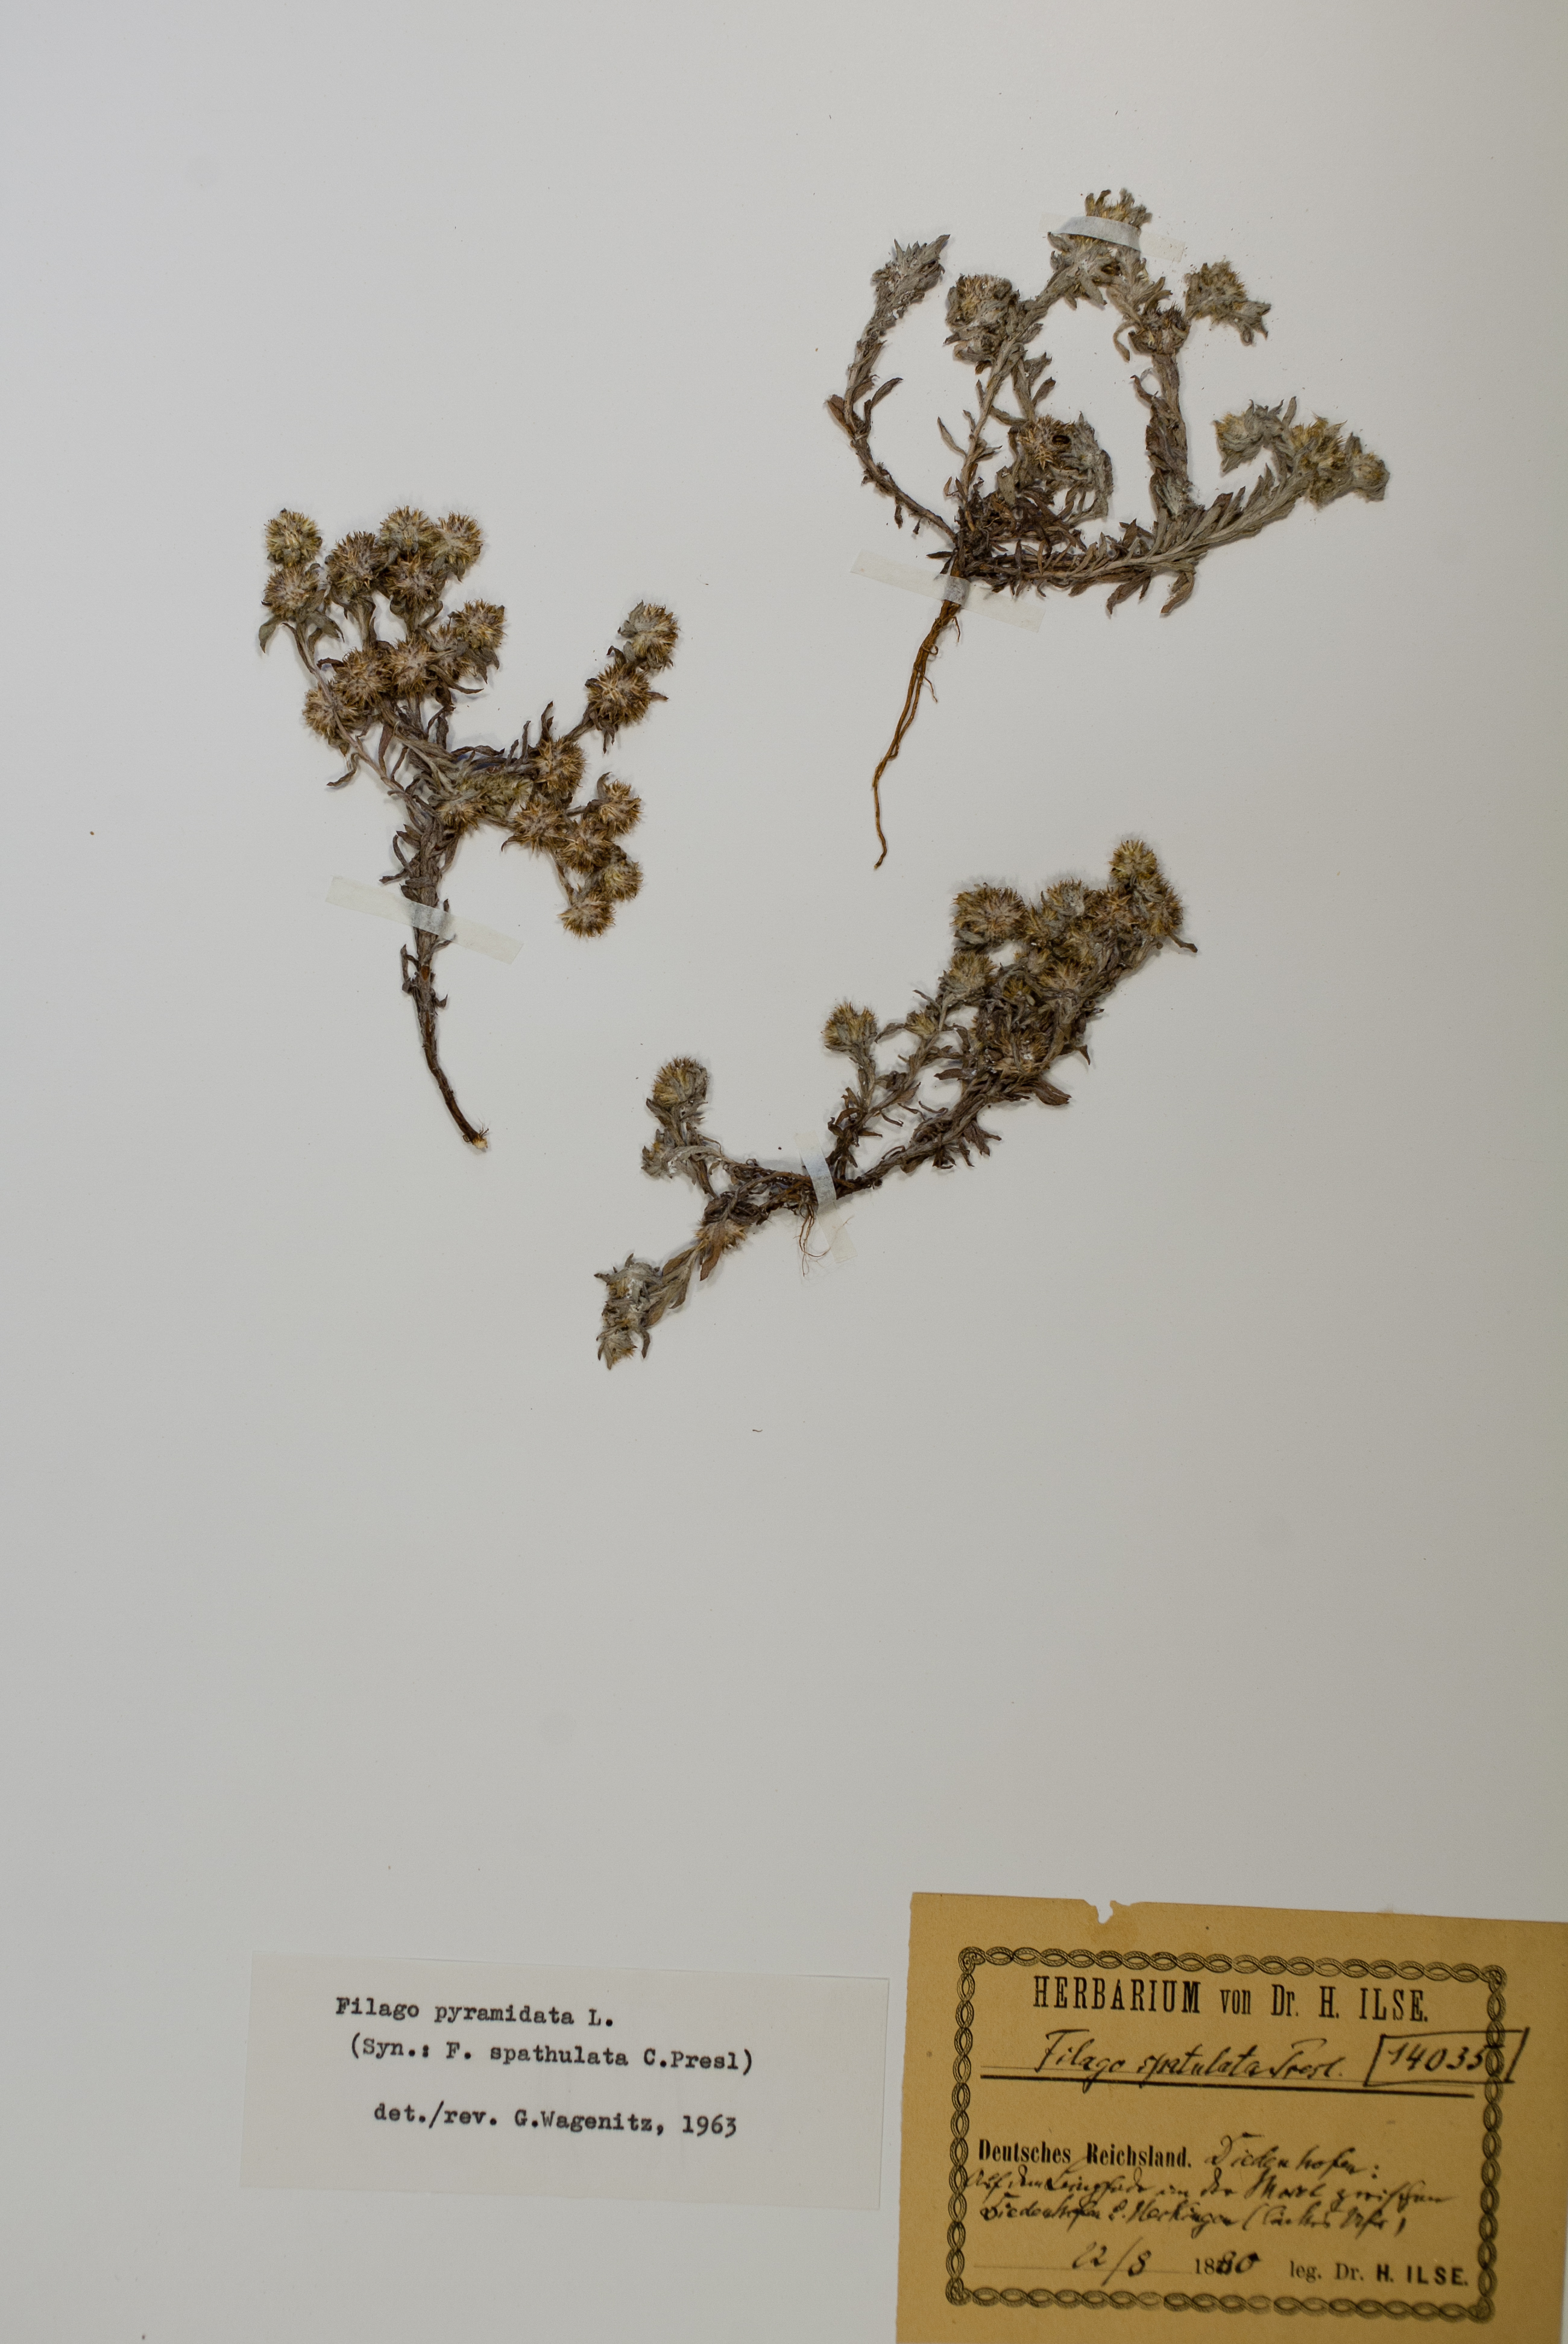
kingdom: Plantae
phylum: Tracheophyta
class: Magnoliopsida
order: Asterales
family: Asteraceae
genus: Filago
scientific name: Filago pyramidata
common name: Broad-leaved cudweed
